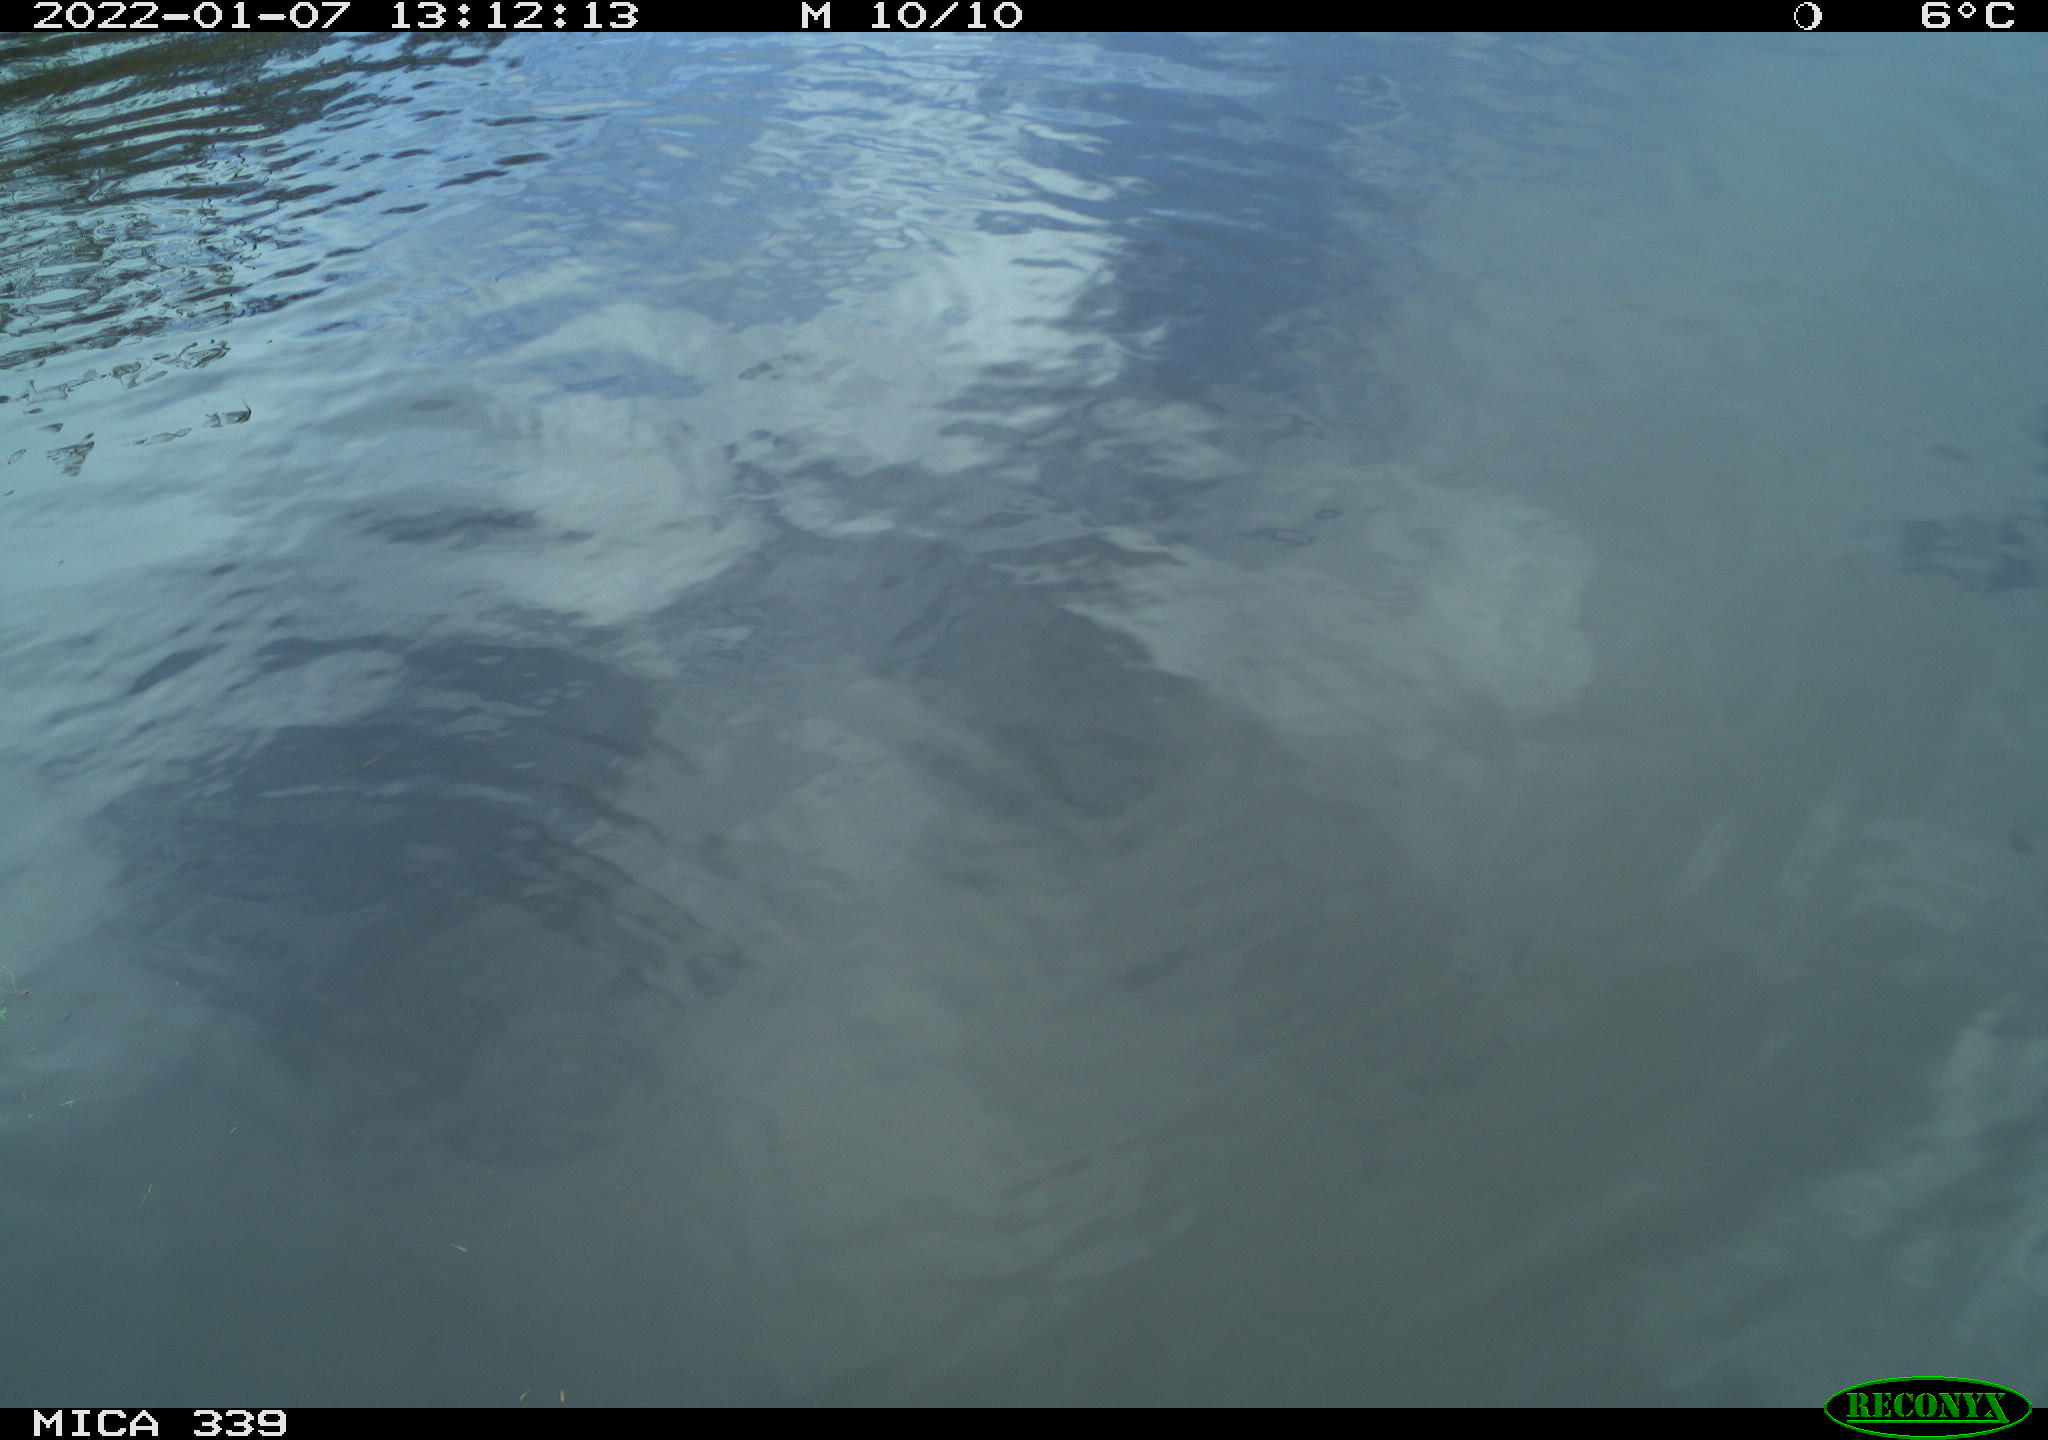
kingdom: Animalia
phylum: Chordata
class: Aves
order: Anseriformes
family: Anatidae
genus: Anas
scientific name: Anas platyrhynchos
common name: Mallard
